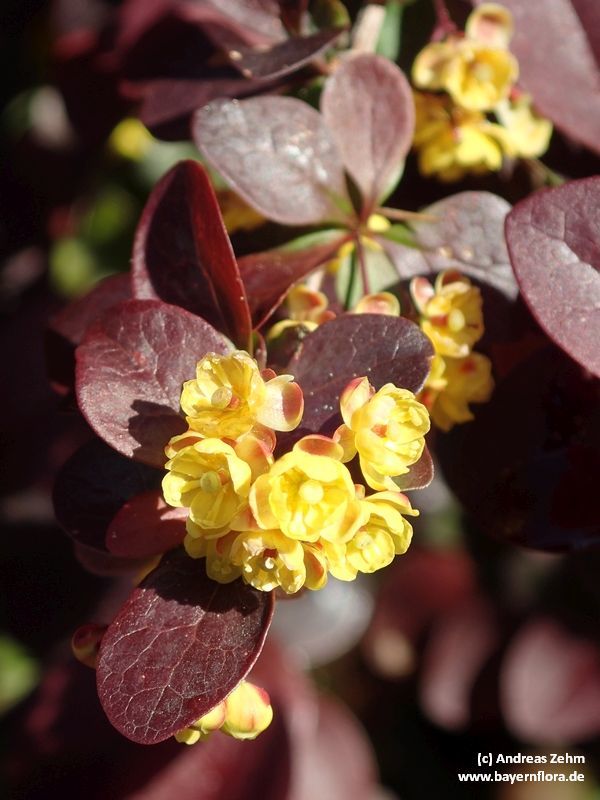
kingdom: Plantae
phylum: Tracheophyta
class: Magnoliopsida
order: Ranunculales
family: Berberidaceae
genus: Berberis
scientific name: Berberis thunbergii
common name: Japanese barberry
